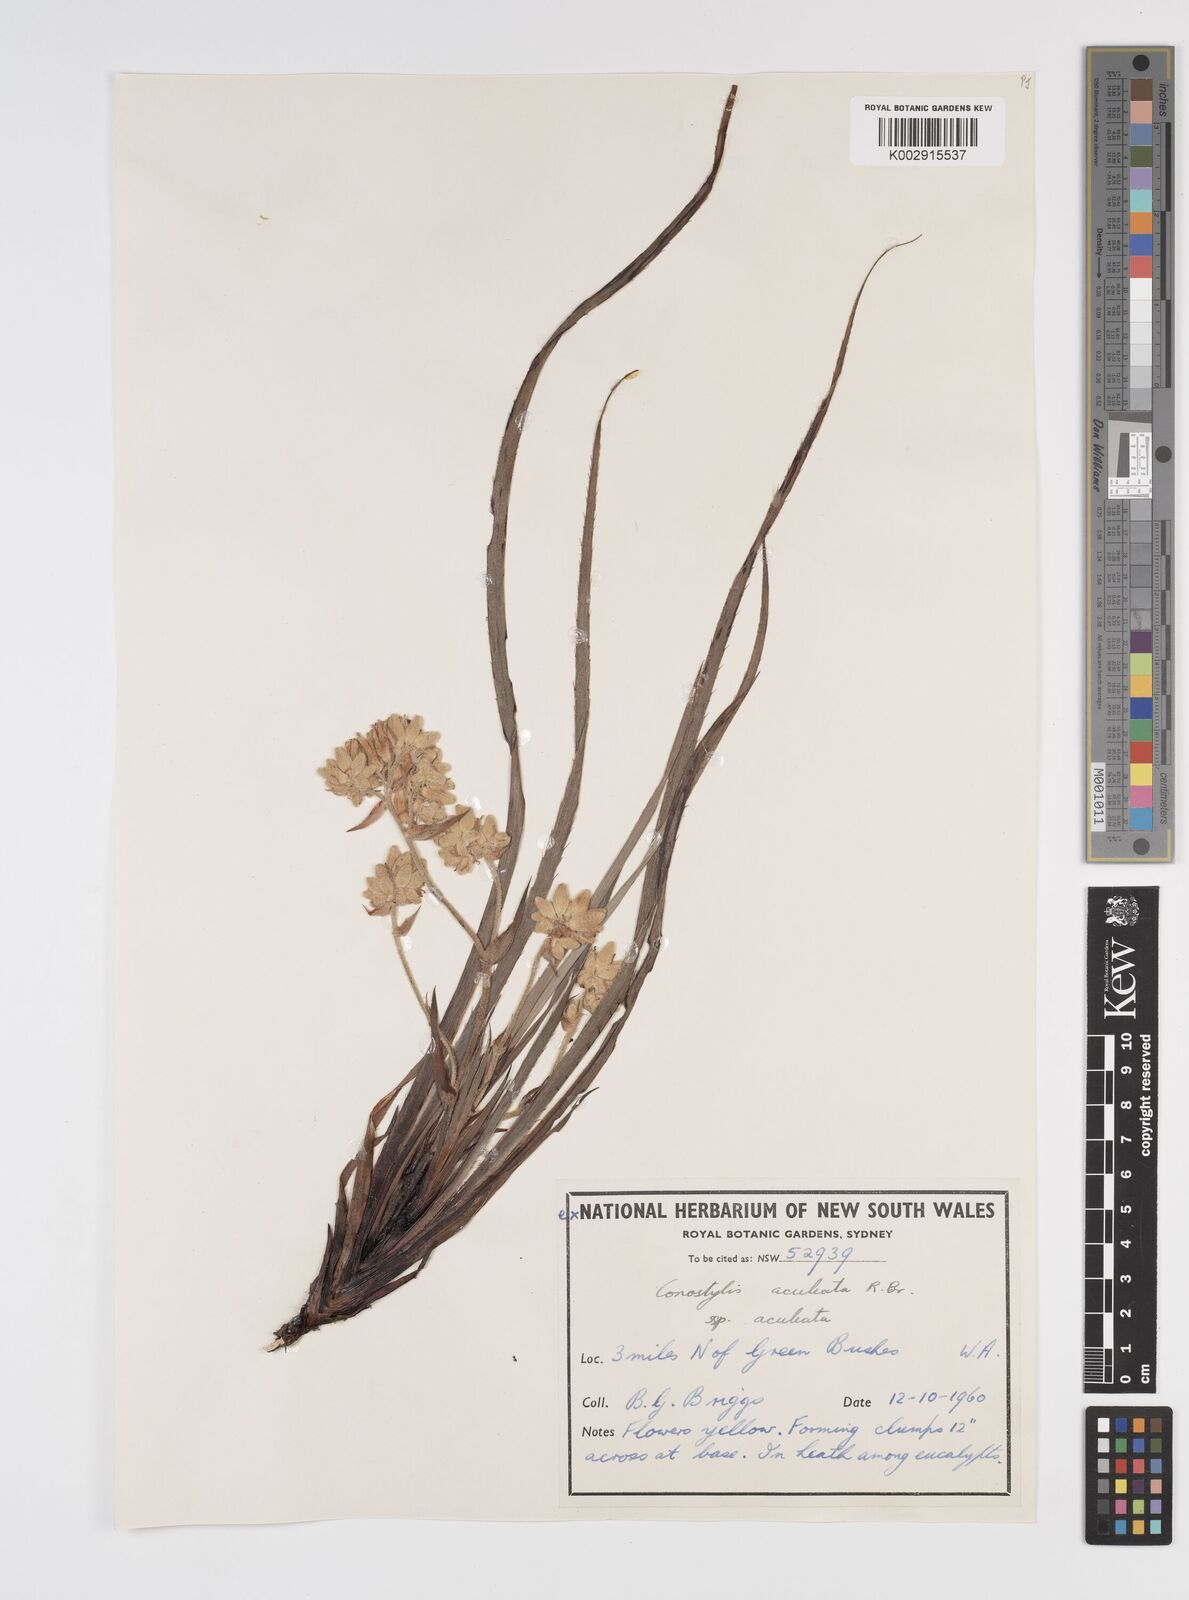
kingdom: Plantae
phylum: Tracheophyta
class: Liliopsida
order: Commelinales
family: Haemodoraceae
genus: Conostylis
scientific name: Conostylis aculeata
